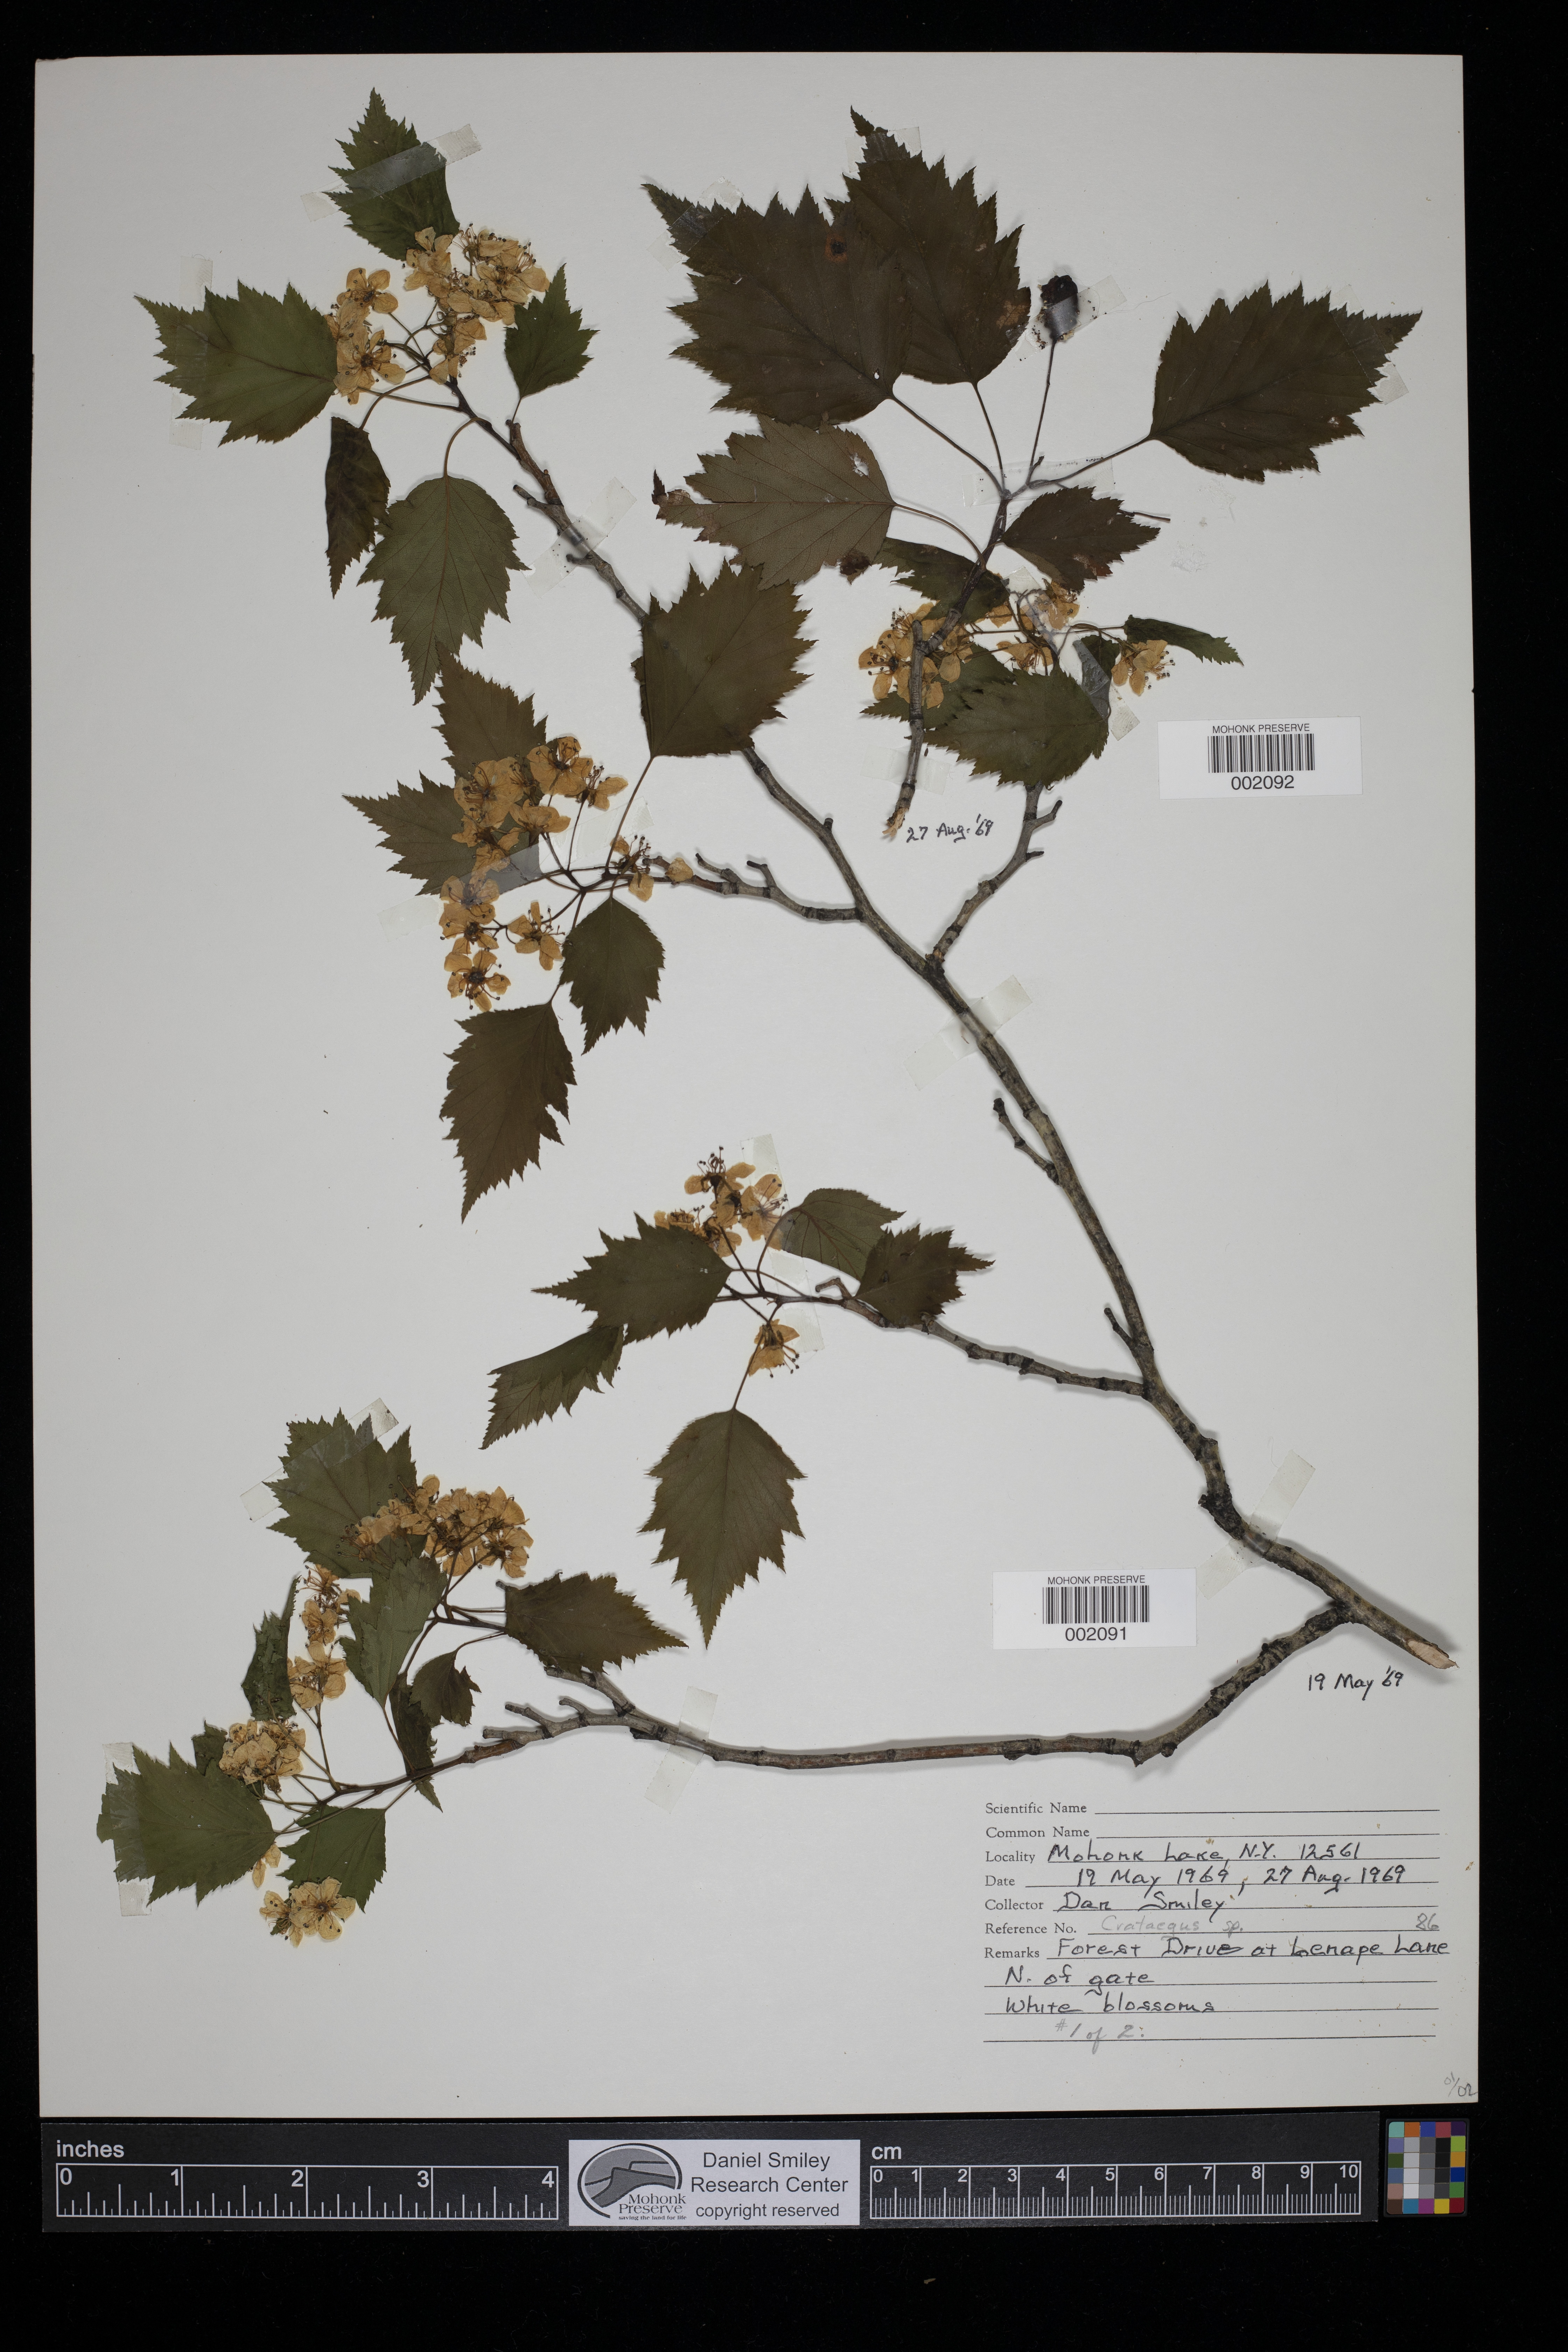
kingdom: Plantae
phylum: Tracheophyta
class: Magnoliopsida
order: Rosales
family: Rosaceae
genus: Crataegus
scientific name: Crataegus
